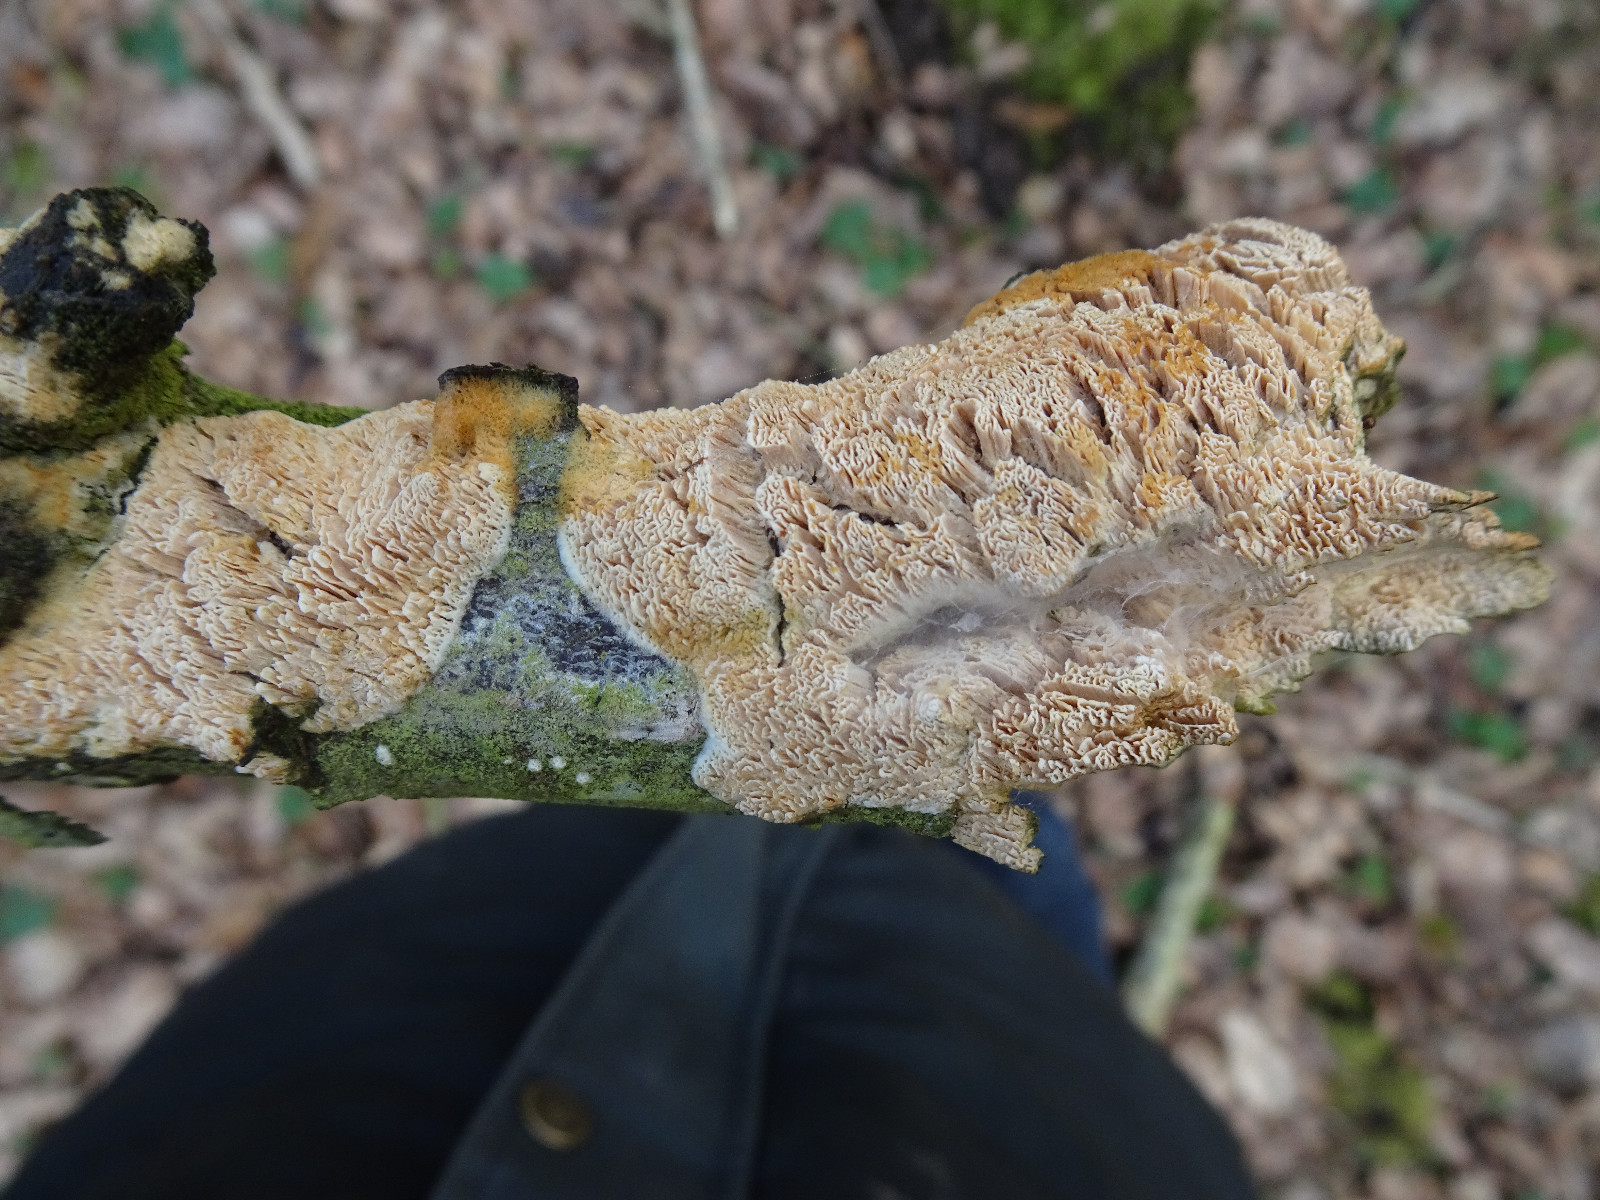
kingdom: Fungi
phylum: Basidiomycota
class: Agaricomycetes
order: Corticiales
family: Corticiaceae
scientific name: Corticiaceae
